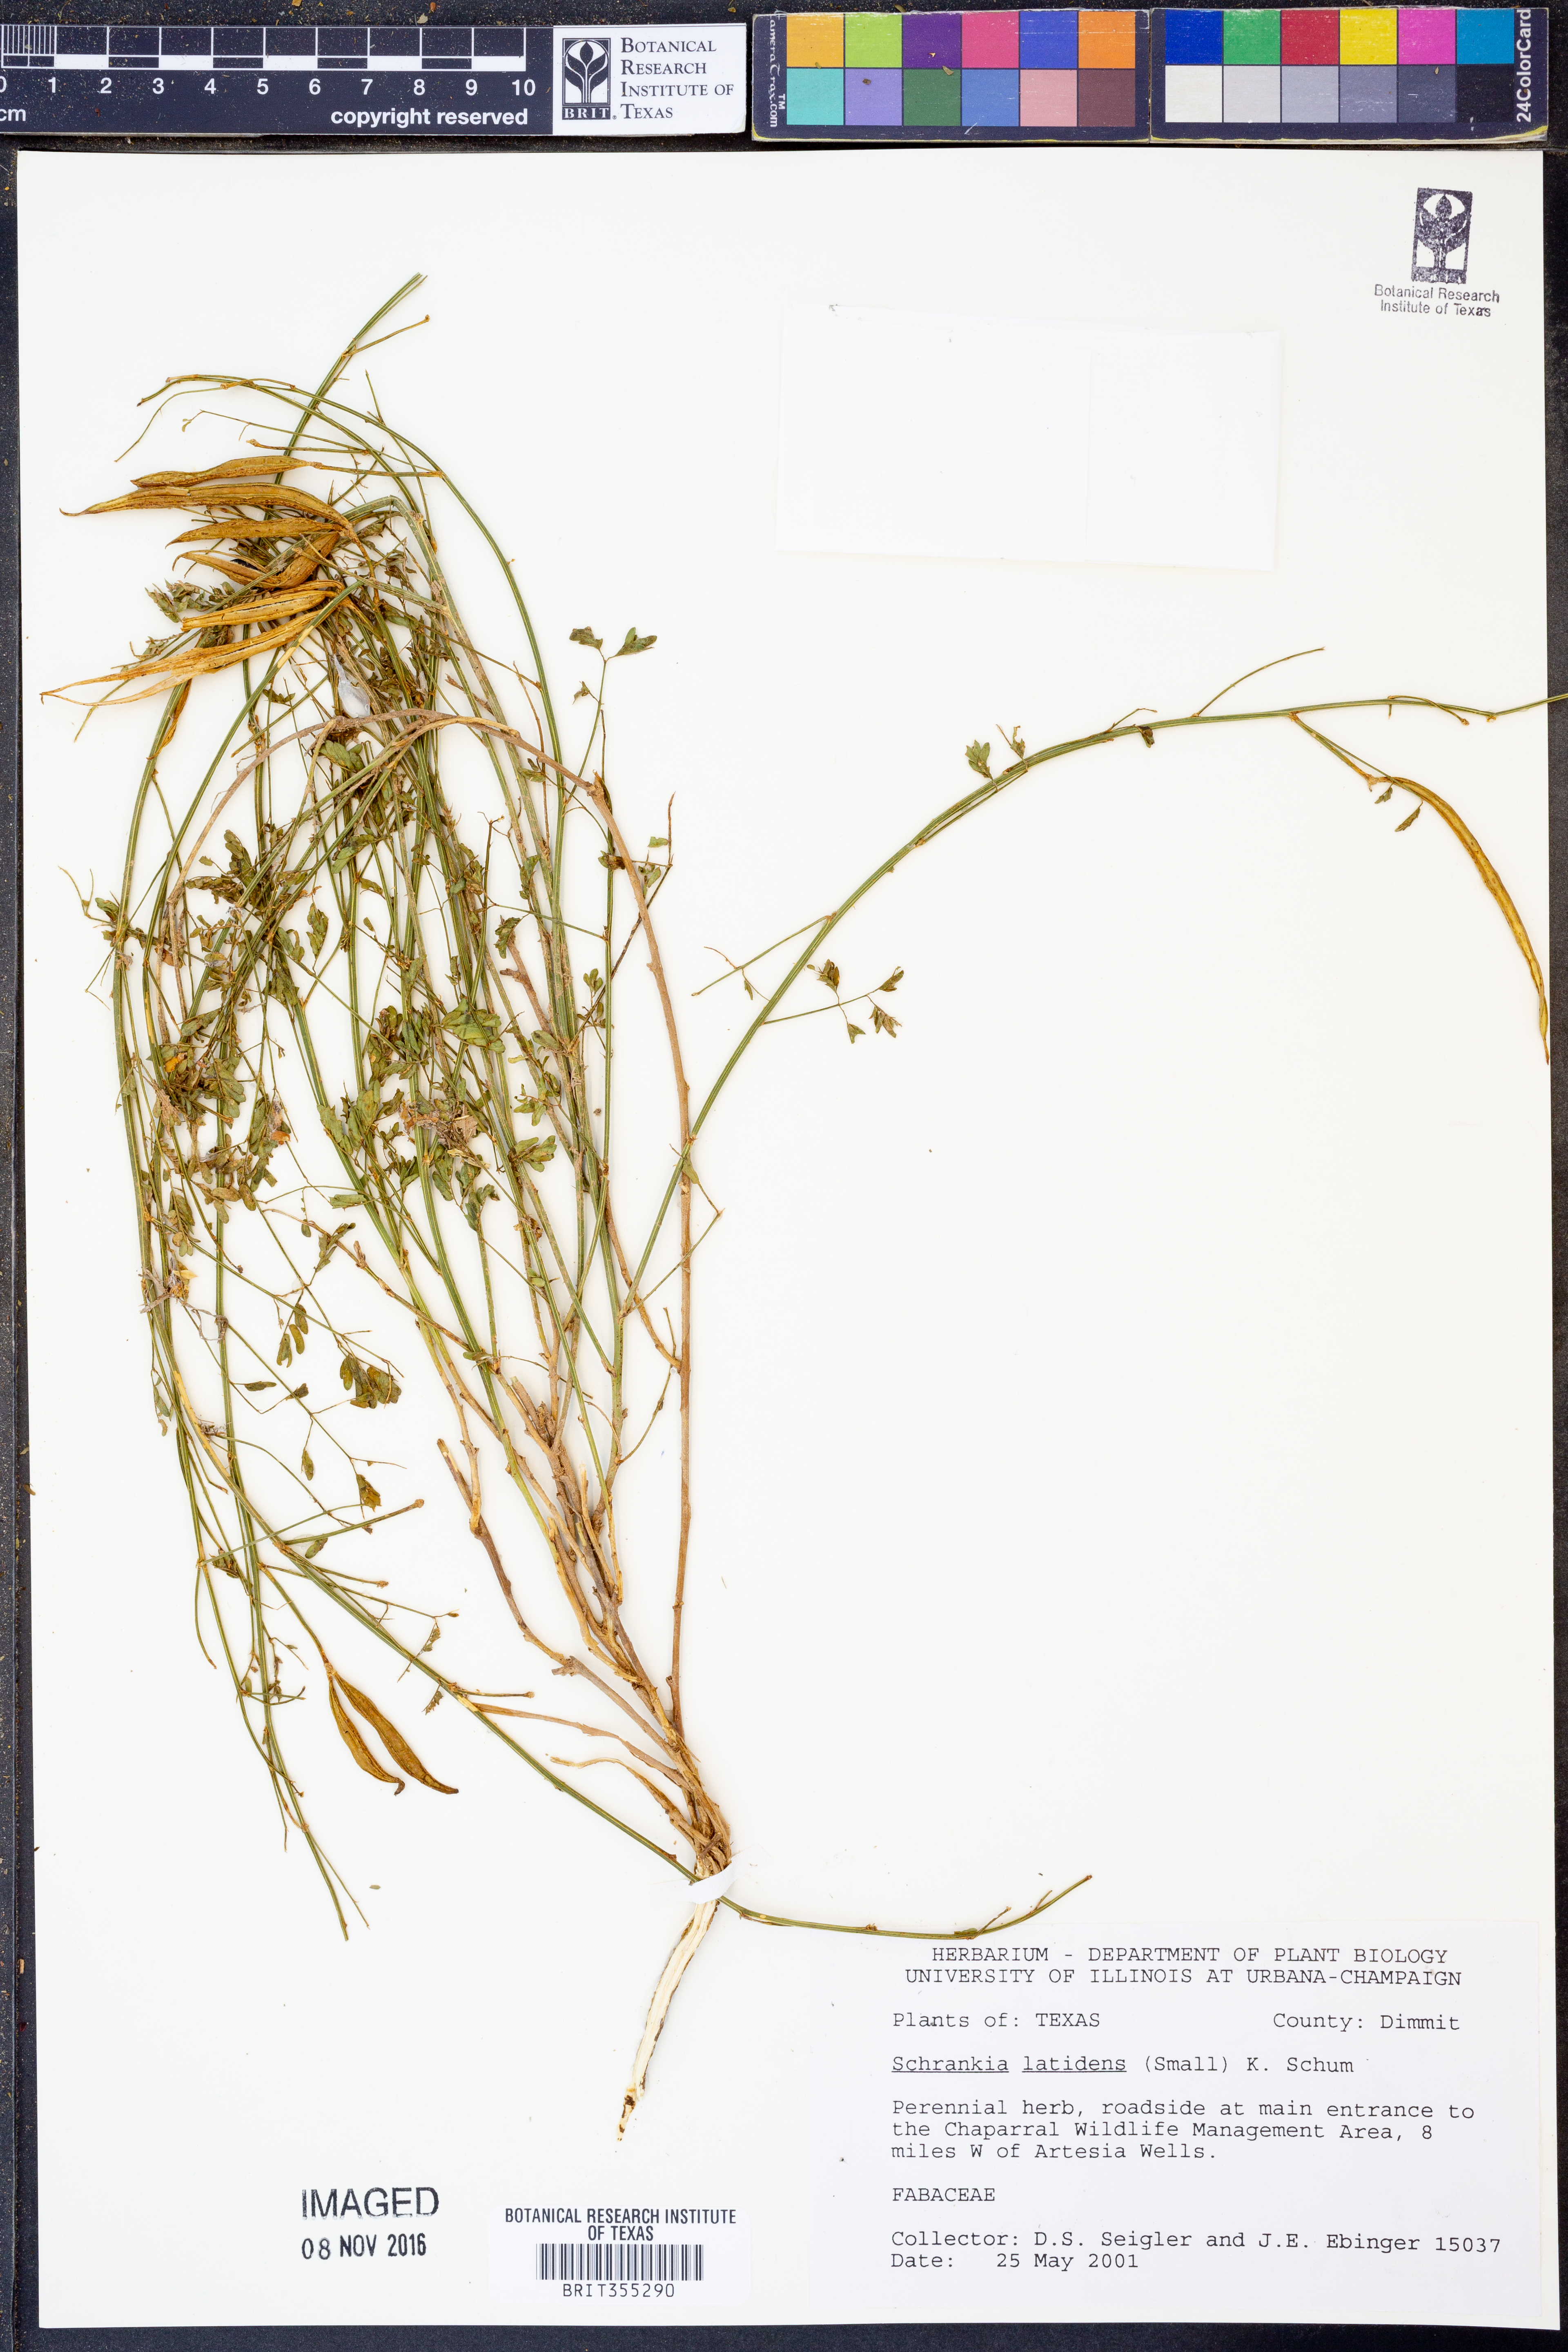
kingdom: Plantae
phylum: Tracheophyta
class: Magnoliopsida
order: Fabales
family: Fabaceae
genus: Mimosa
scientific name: Mimosa quadrivalvis
